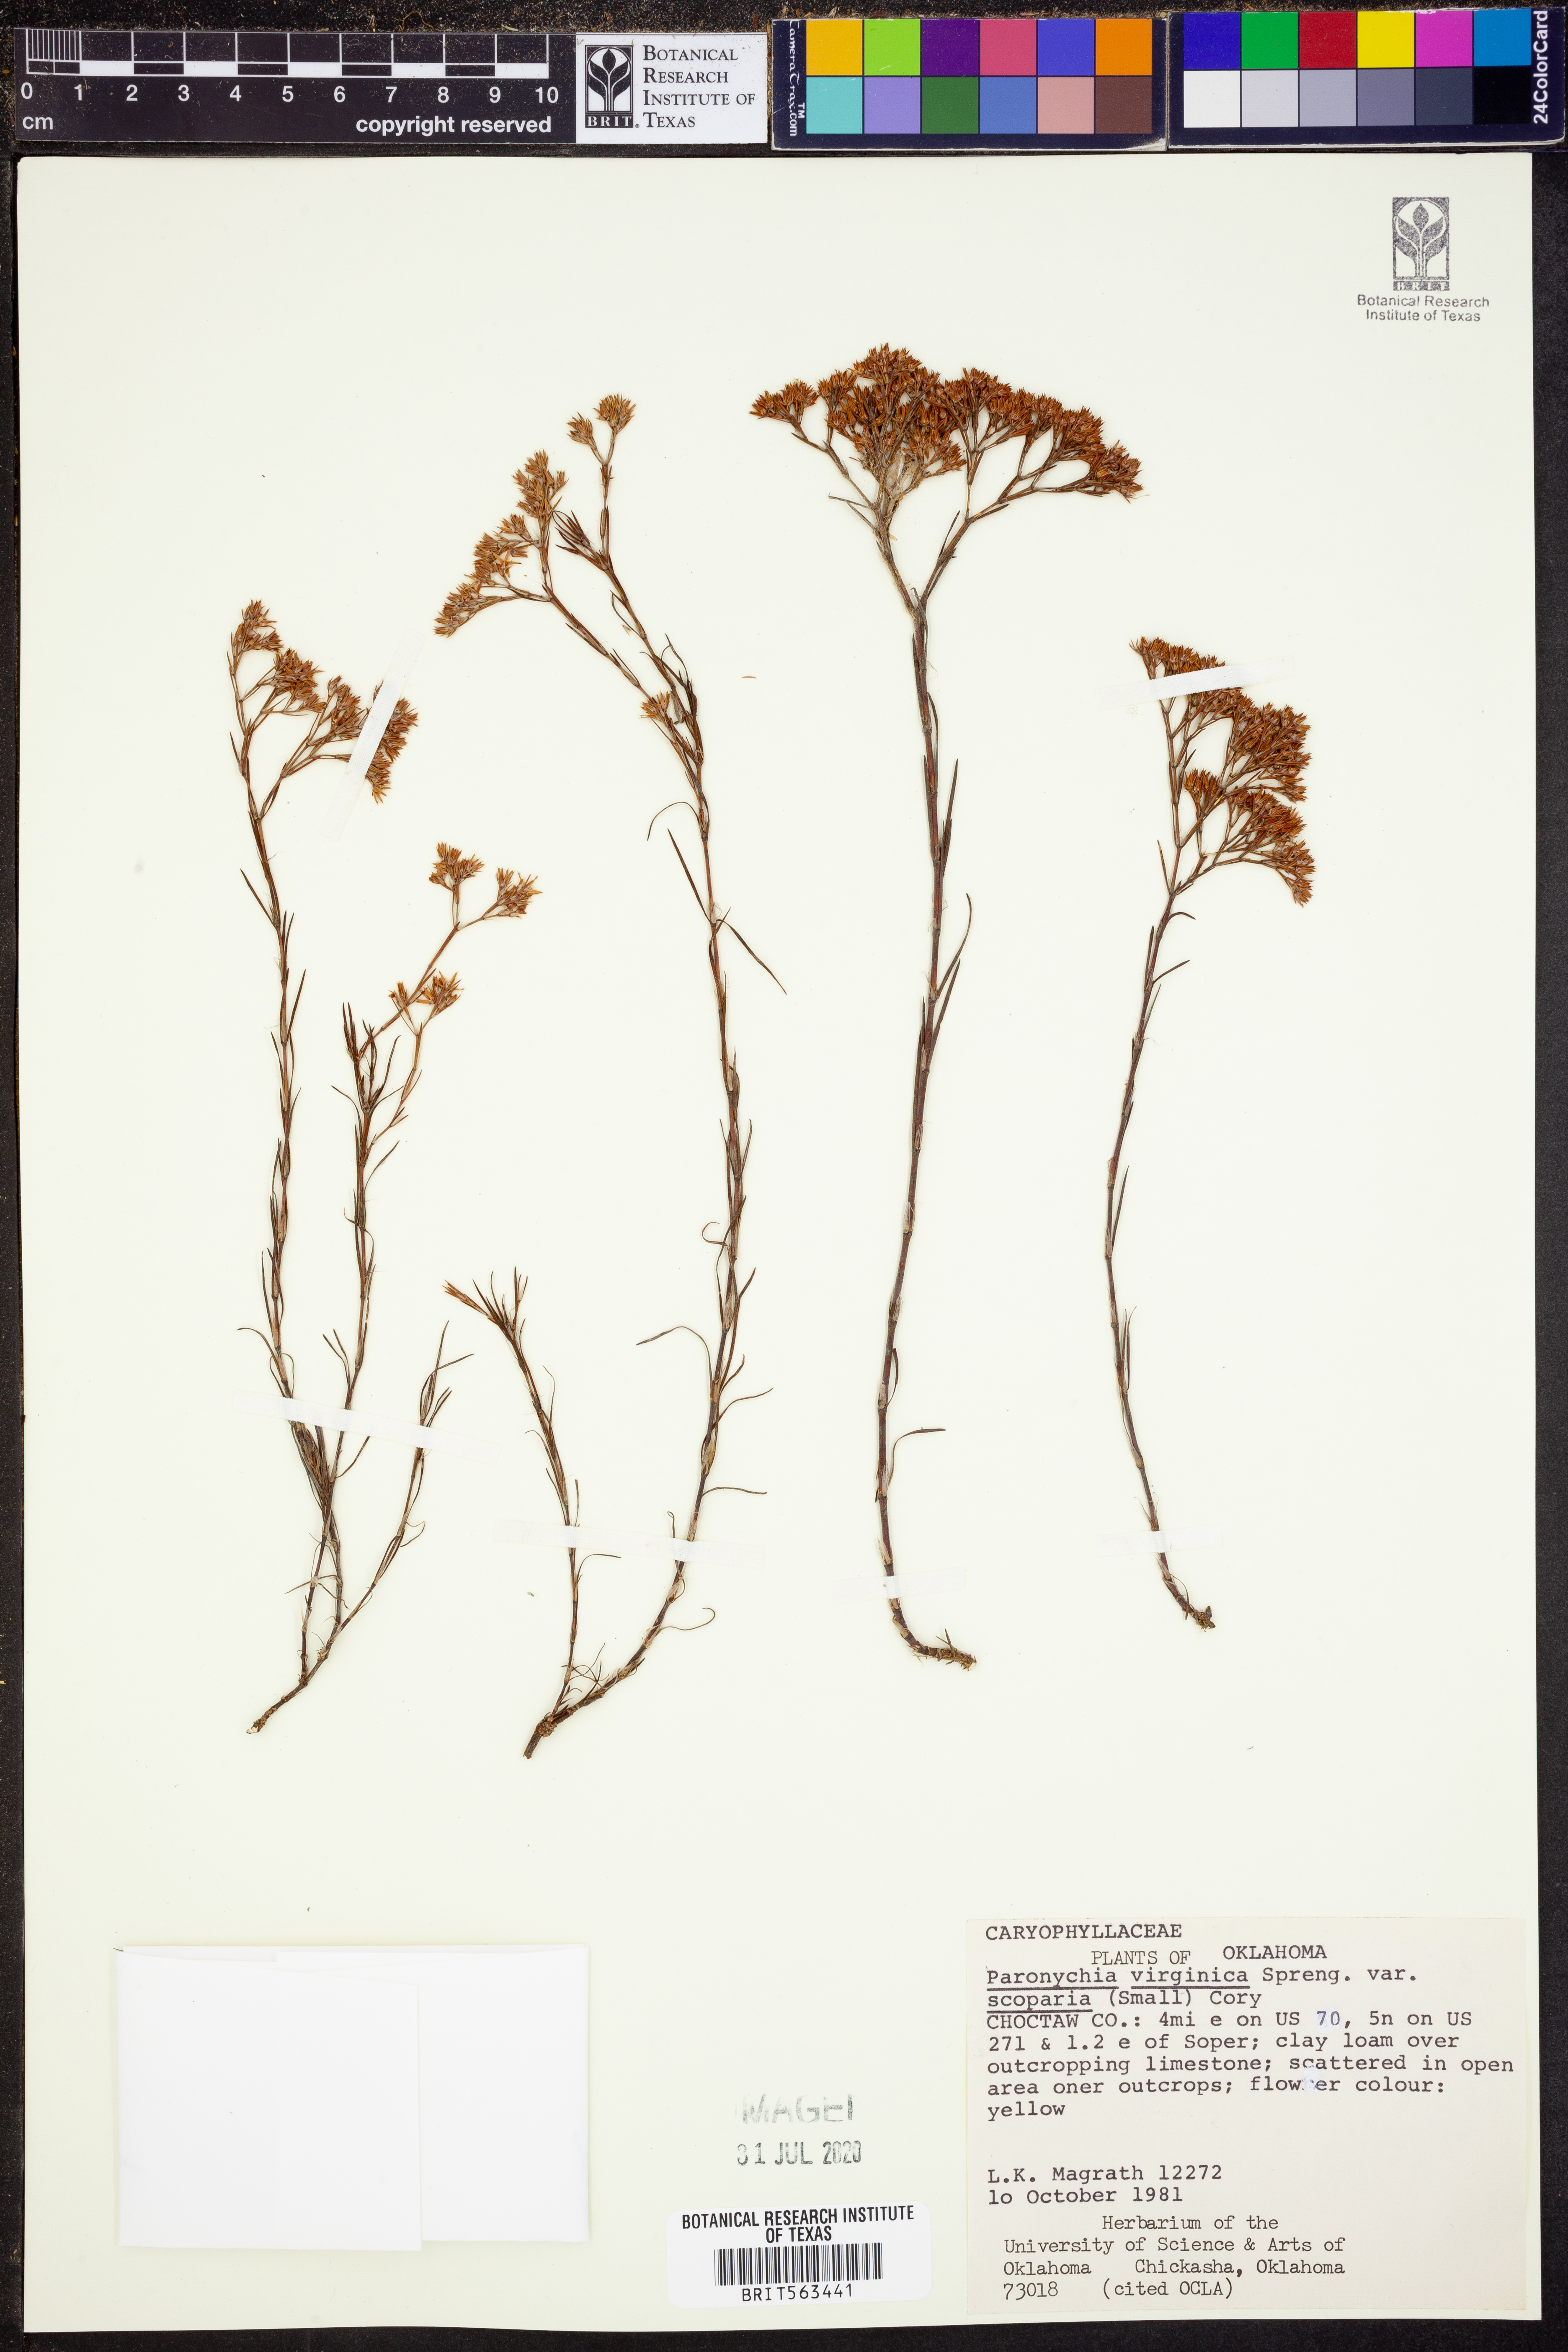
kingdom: Plantae
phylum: Tracheophyta
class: Magnoliopsida
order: Caryophyllales
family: Caryophyllaceae
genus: Paronychia
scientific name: Paronychia virginica
